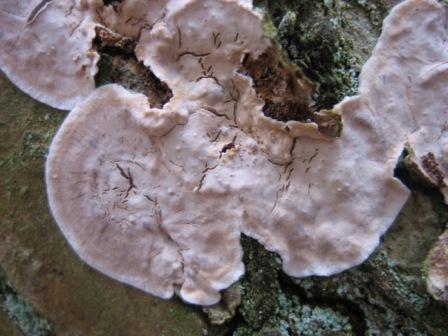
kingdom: Fungi
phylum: Basidiomycota
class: Agaricomycetes
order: Russulales
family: Echinodontiaceae
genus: Amylostereum
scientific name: Amylostereum chailletii
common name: gran-lædersvamp
